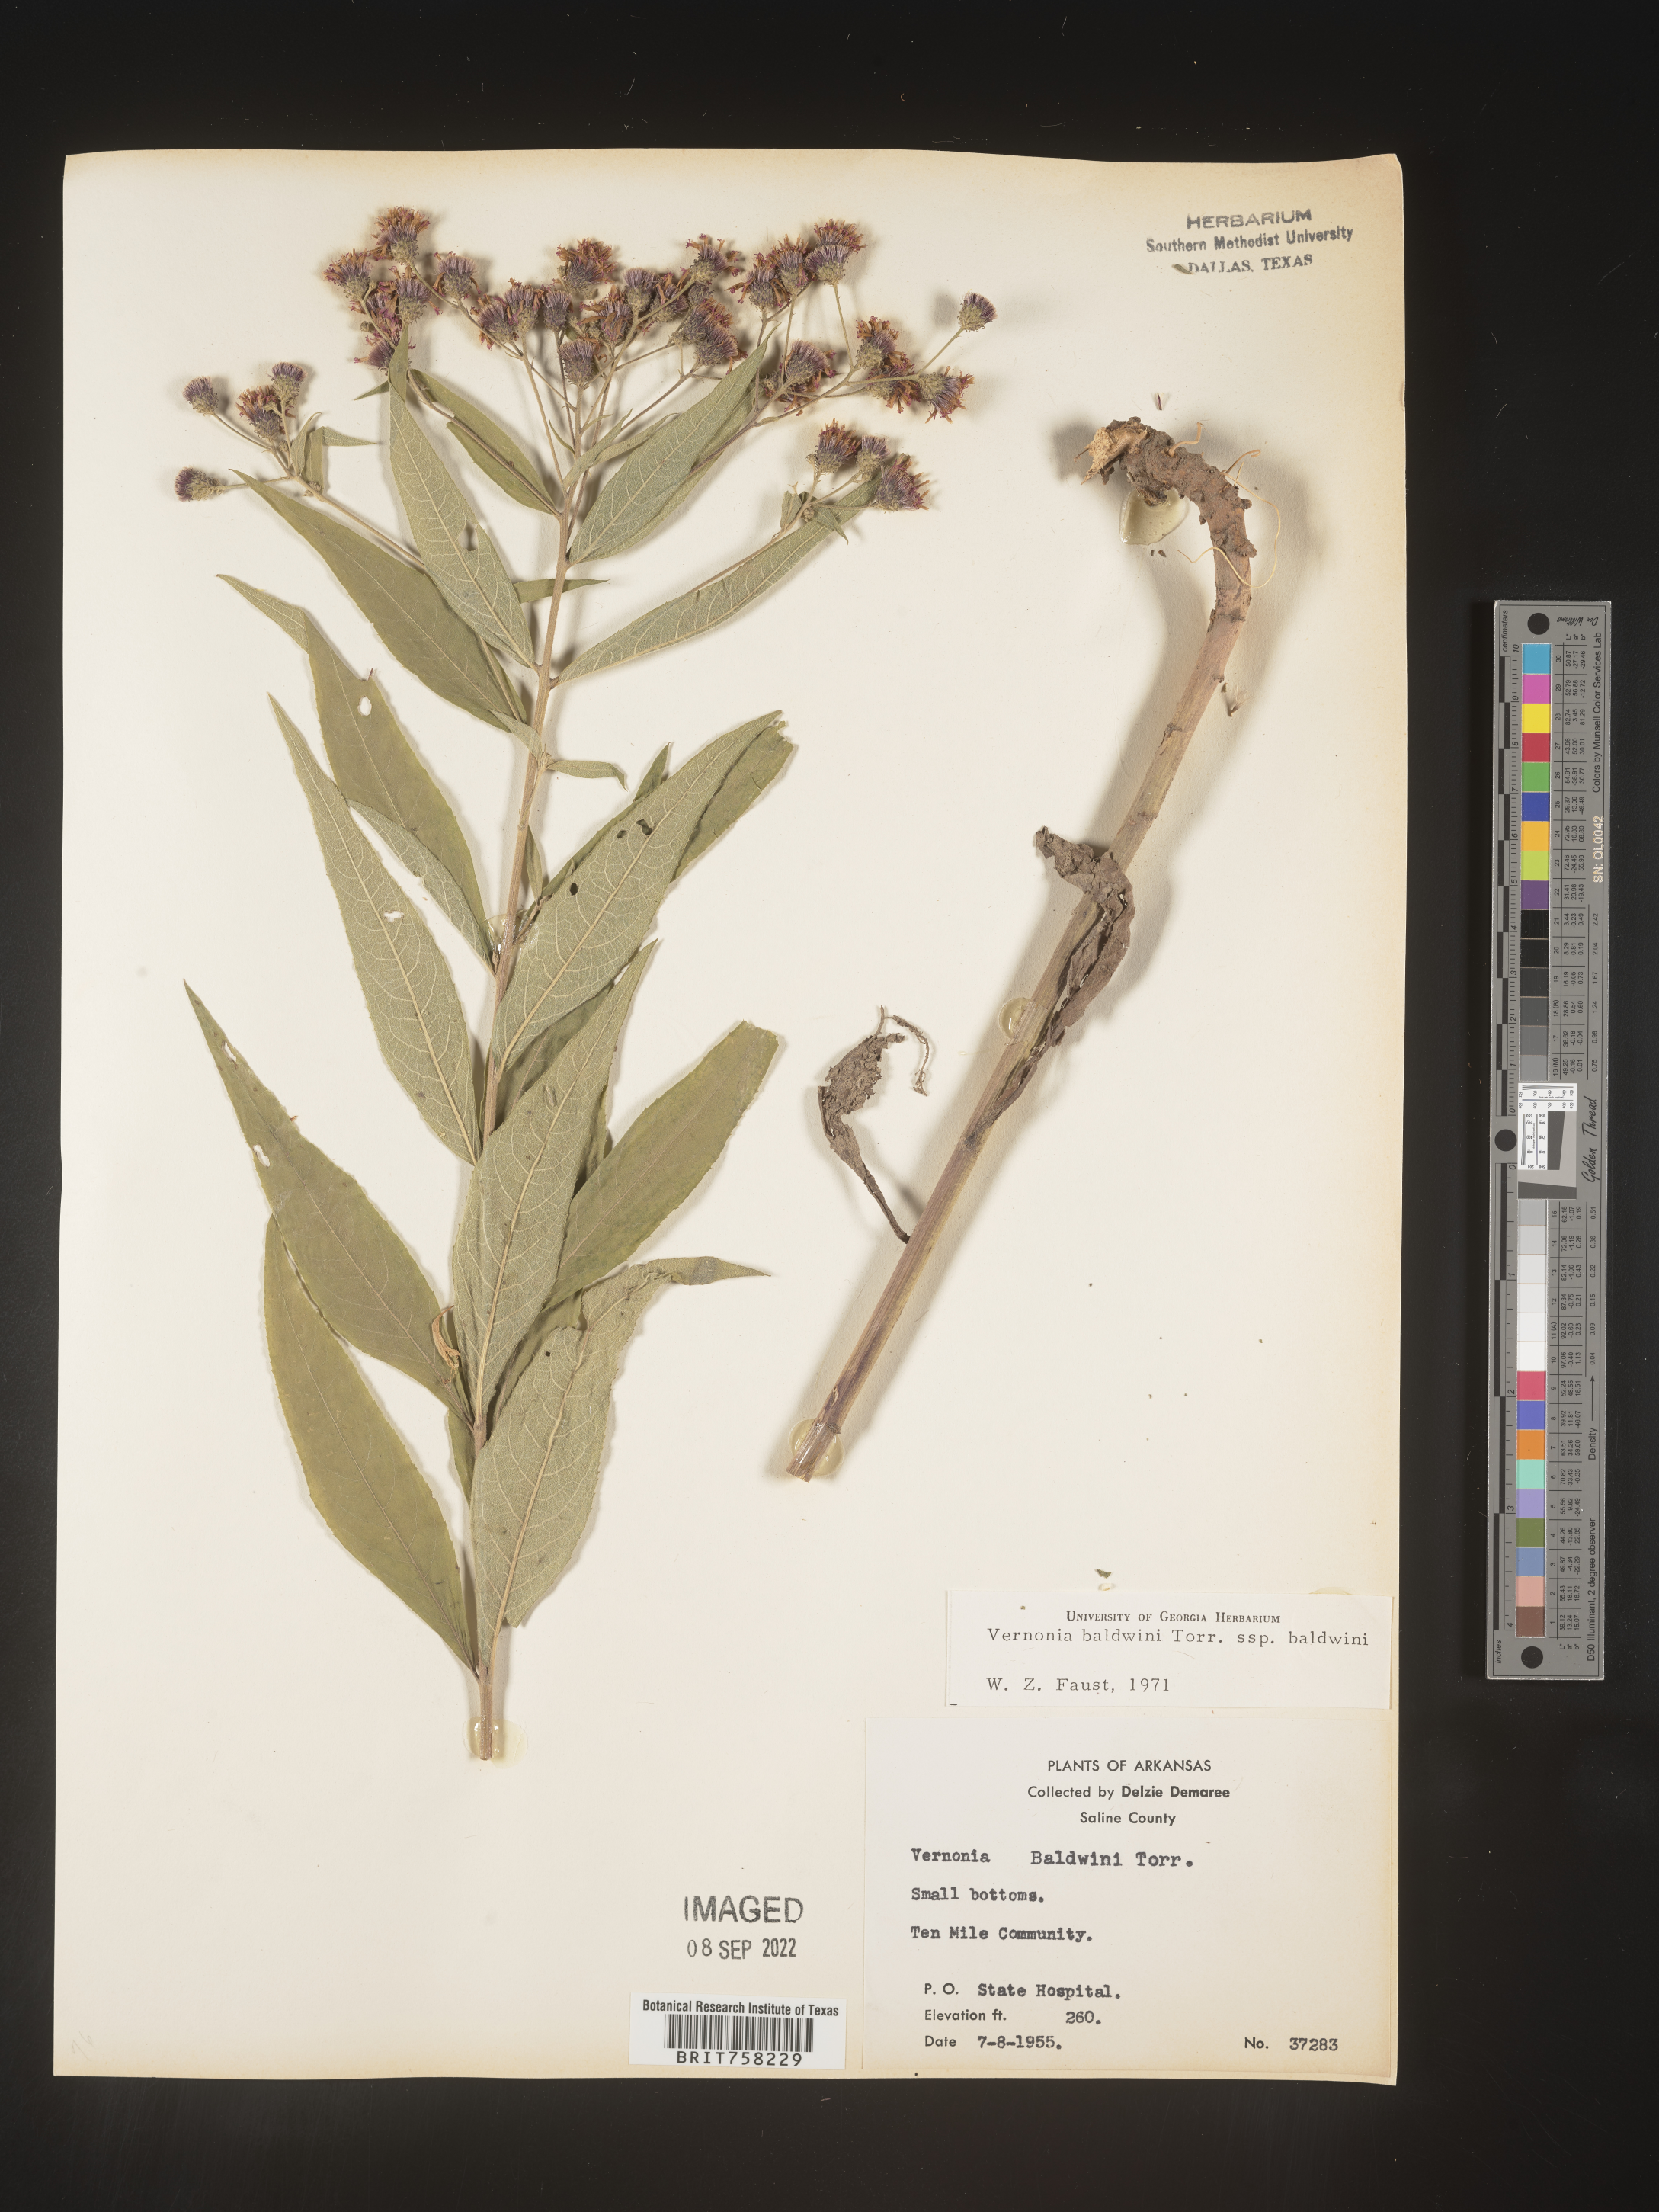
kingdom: Plantae
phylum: Tracheophyta
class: Magnoliopsida
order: Asterales
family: Asteraceae
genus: Vernonia
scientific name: Vernonia baldwinii
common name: Western ironweed
